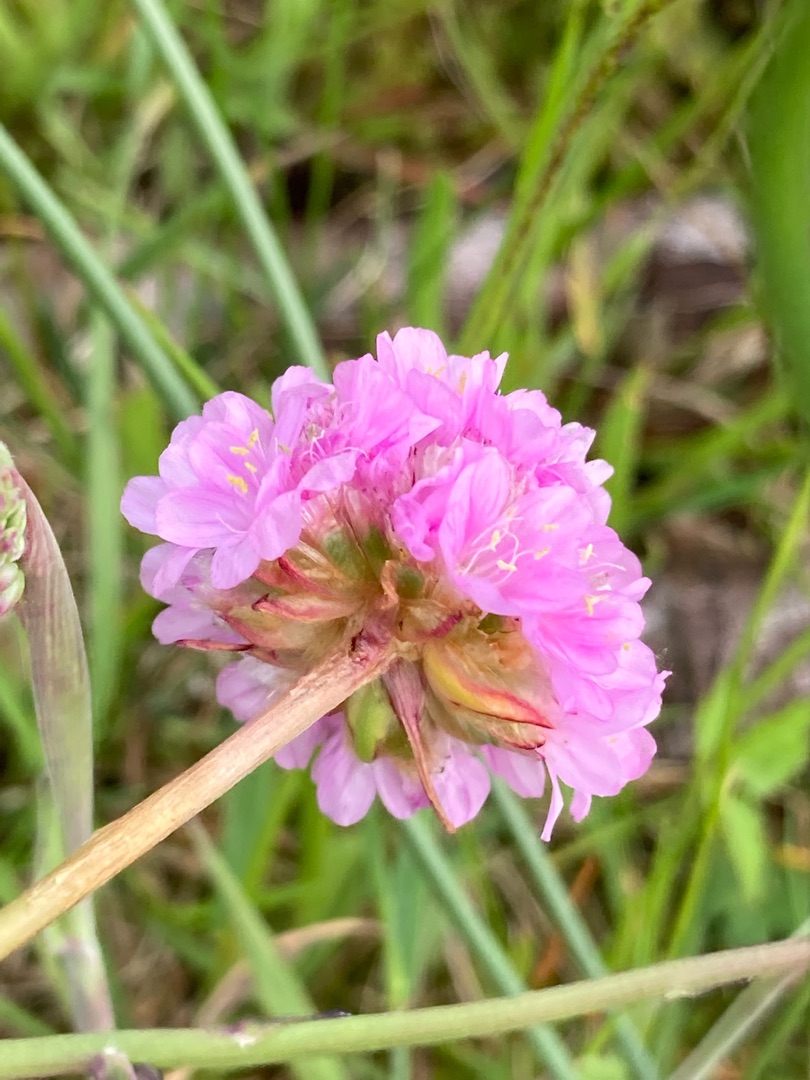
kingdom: Plantae
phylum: Tracheophyta
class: Magnoliopsida
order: Caryophyllales
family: Plumbaginaceae
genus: Armeria
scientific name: Armeria maritima
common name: Engelskgræs
